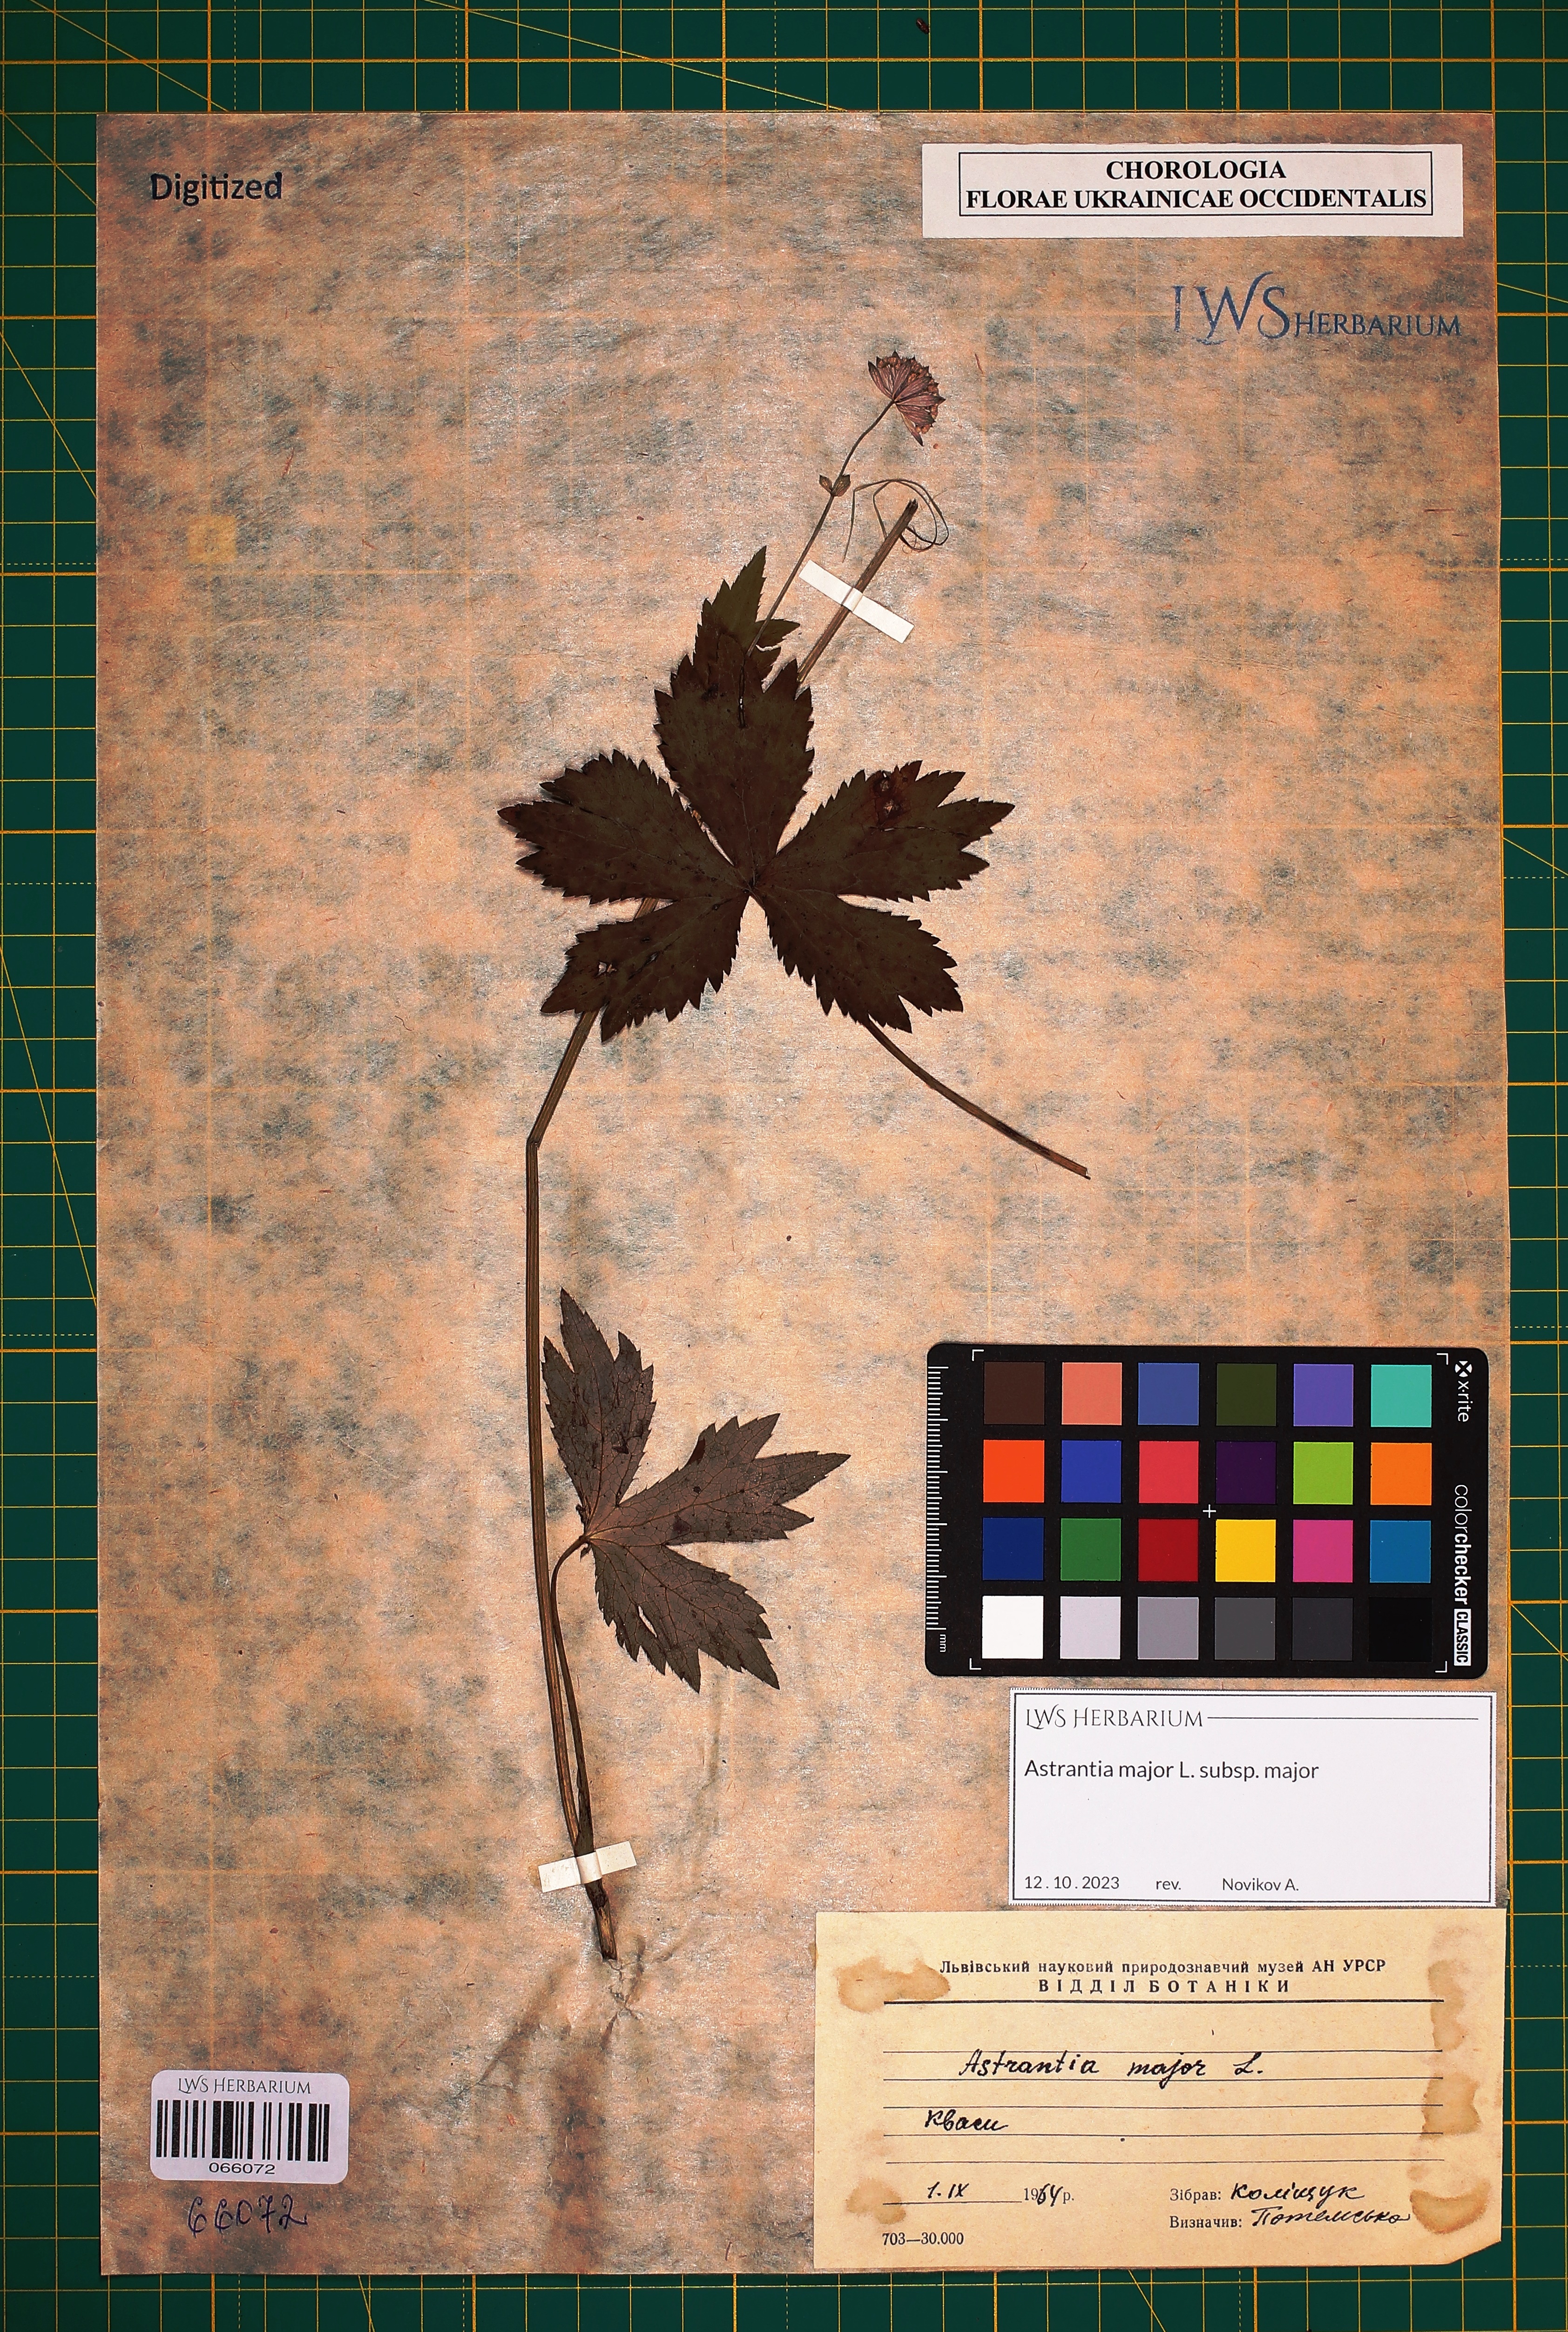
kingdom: Plantae
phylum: Tracheophyta
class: Magnoliopsida
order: Apiales
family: Apiaceae
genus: Astrantia
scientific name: Astrantia major
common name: Greater masterwort
